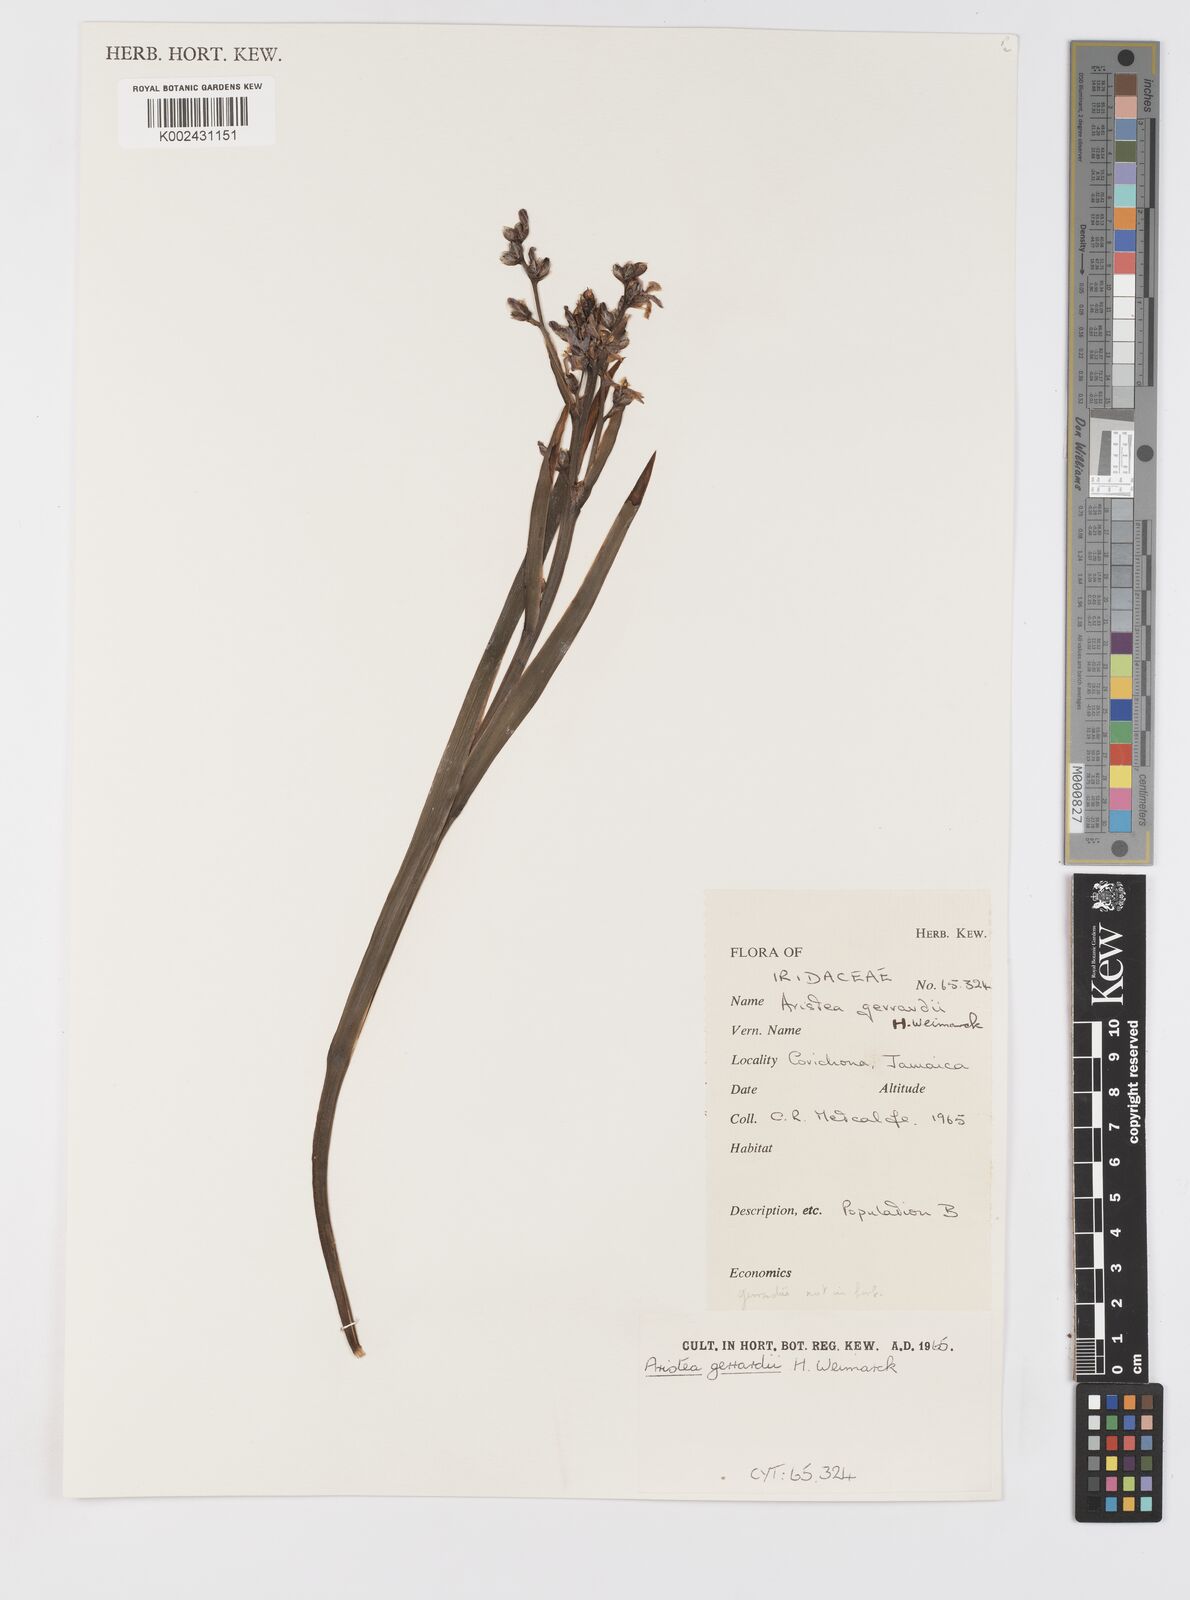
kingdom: Plantae
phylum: Tracheophyta
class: Liliopsida
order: Asparagales
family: Iridaceae
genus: Aristea
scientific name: Aristea compressa
